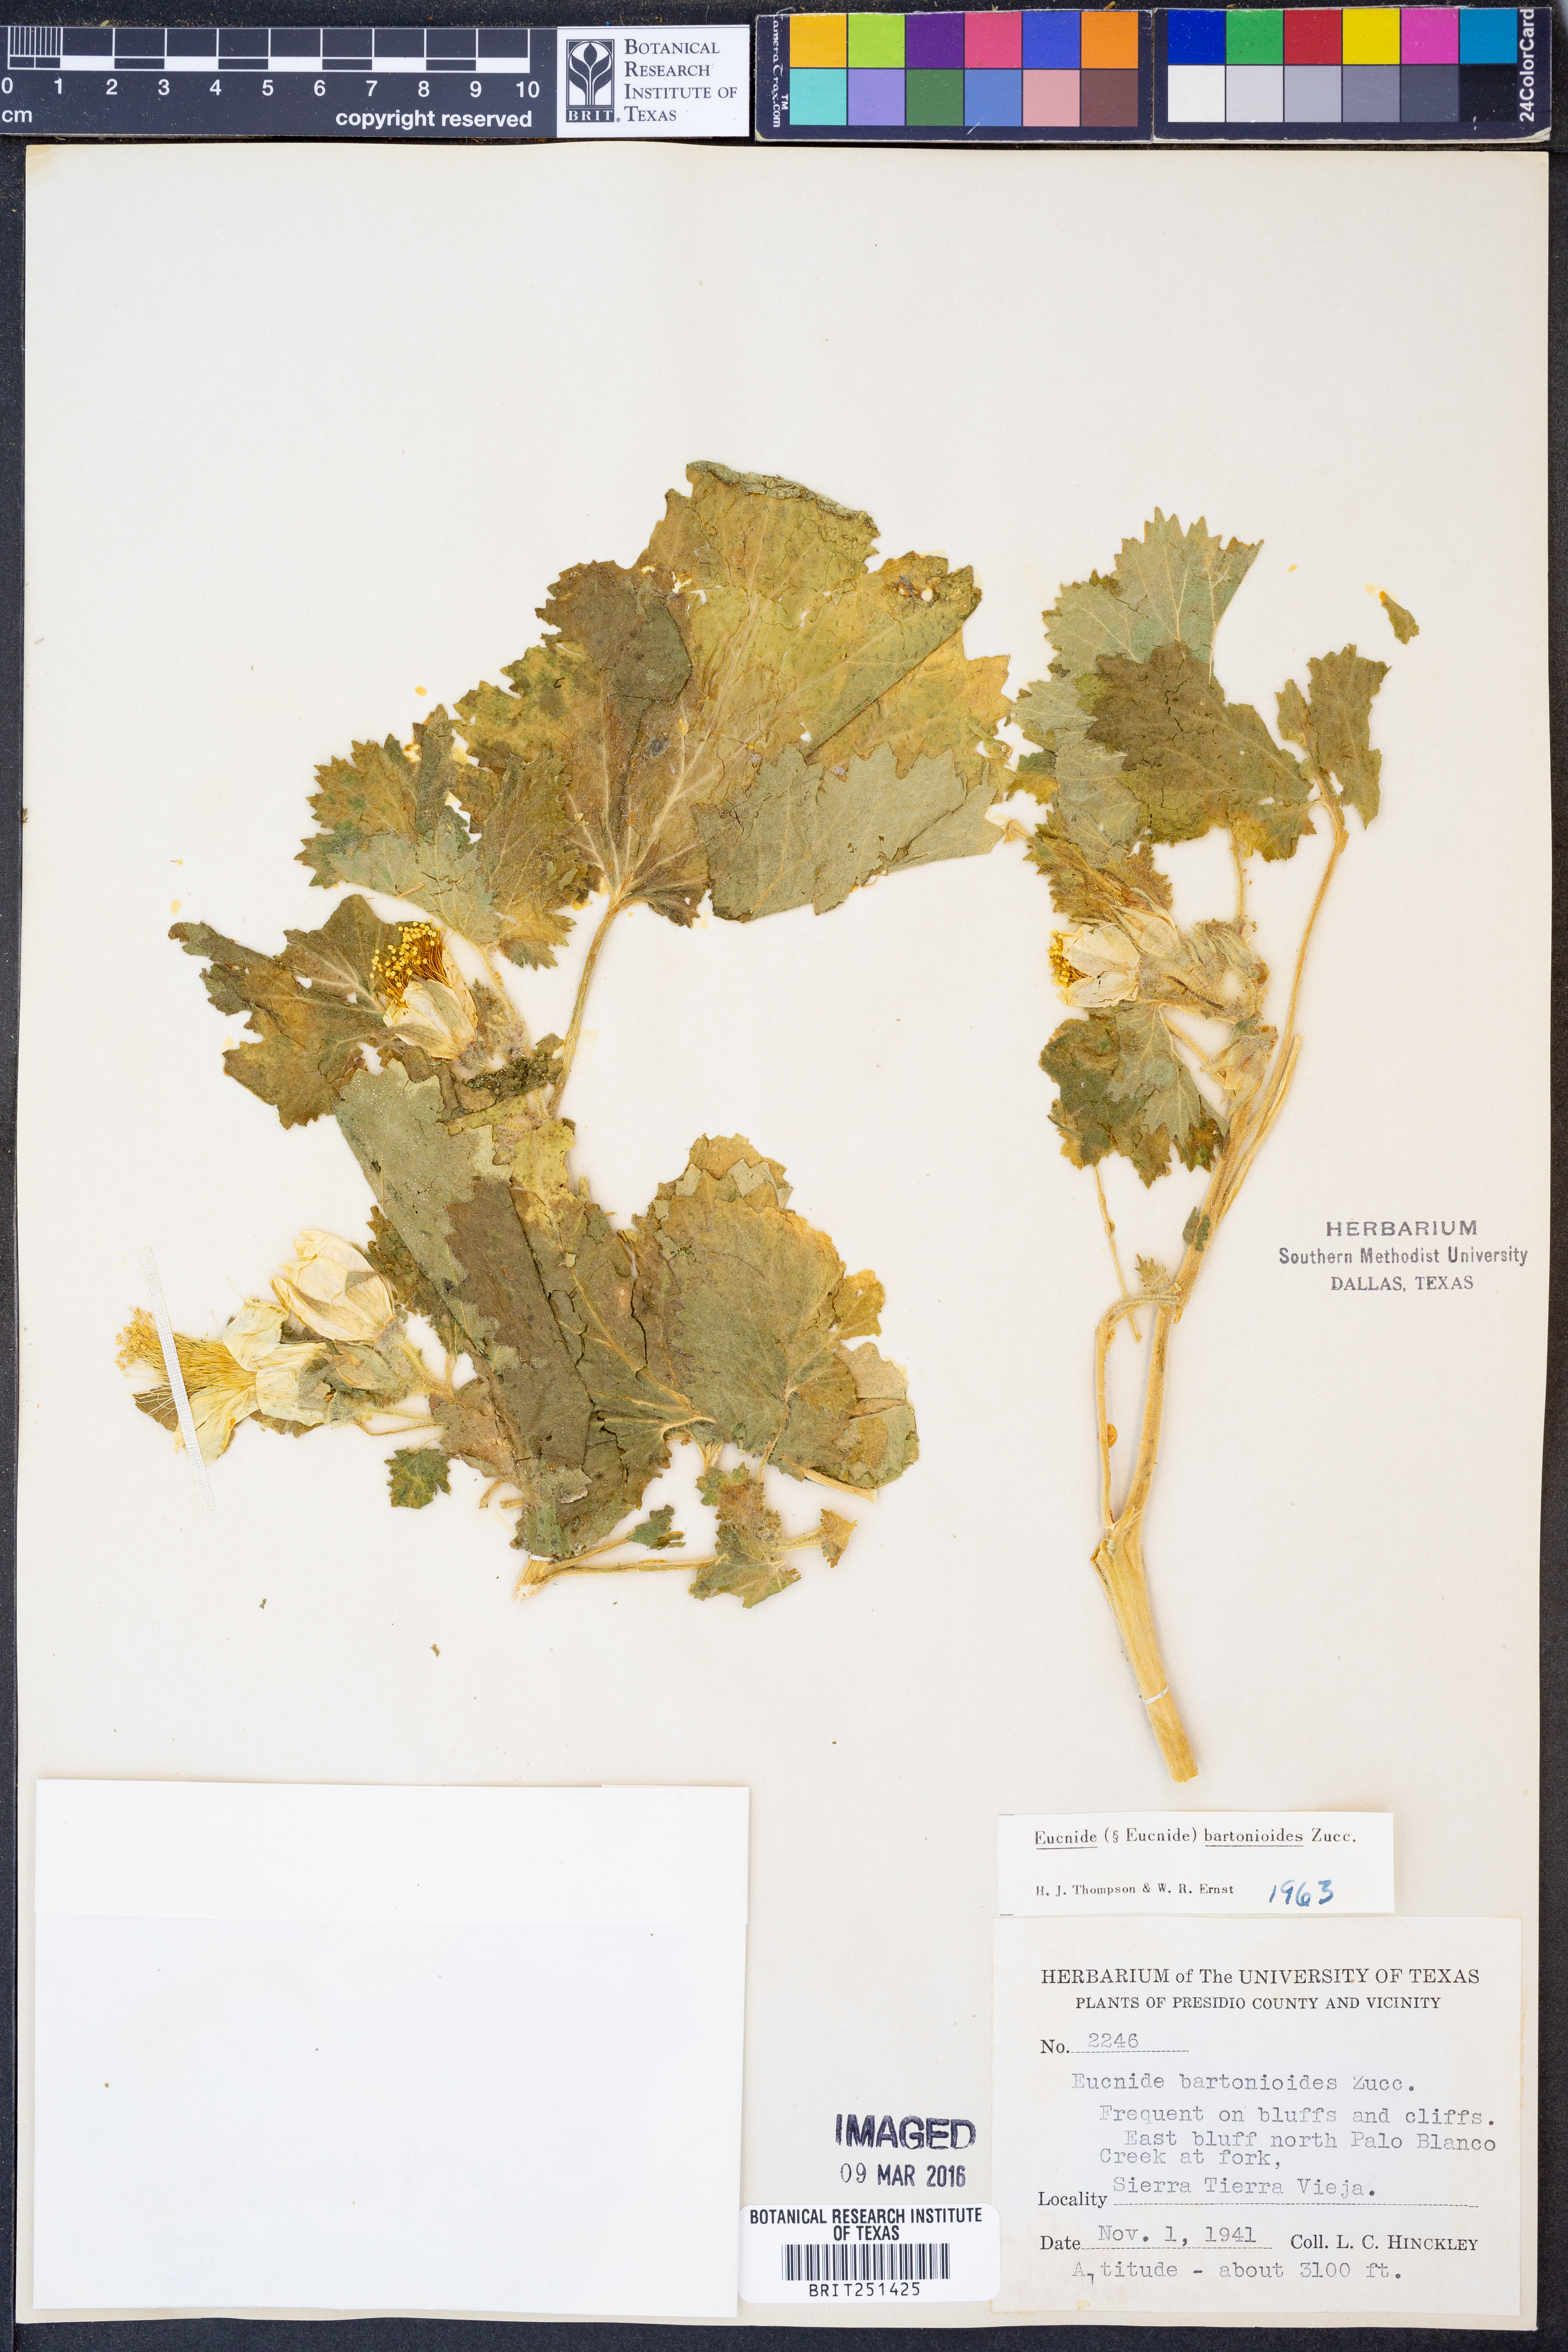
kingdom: Plantae
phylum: Tracheophyta
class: Magnoliopsida
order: Cornales
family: Loasaceae
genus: Eucnide
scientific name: Eucnide bartonioides
